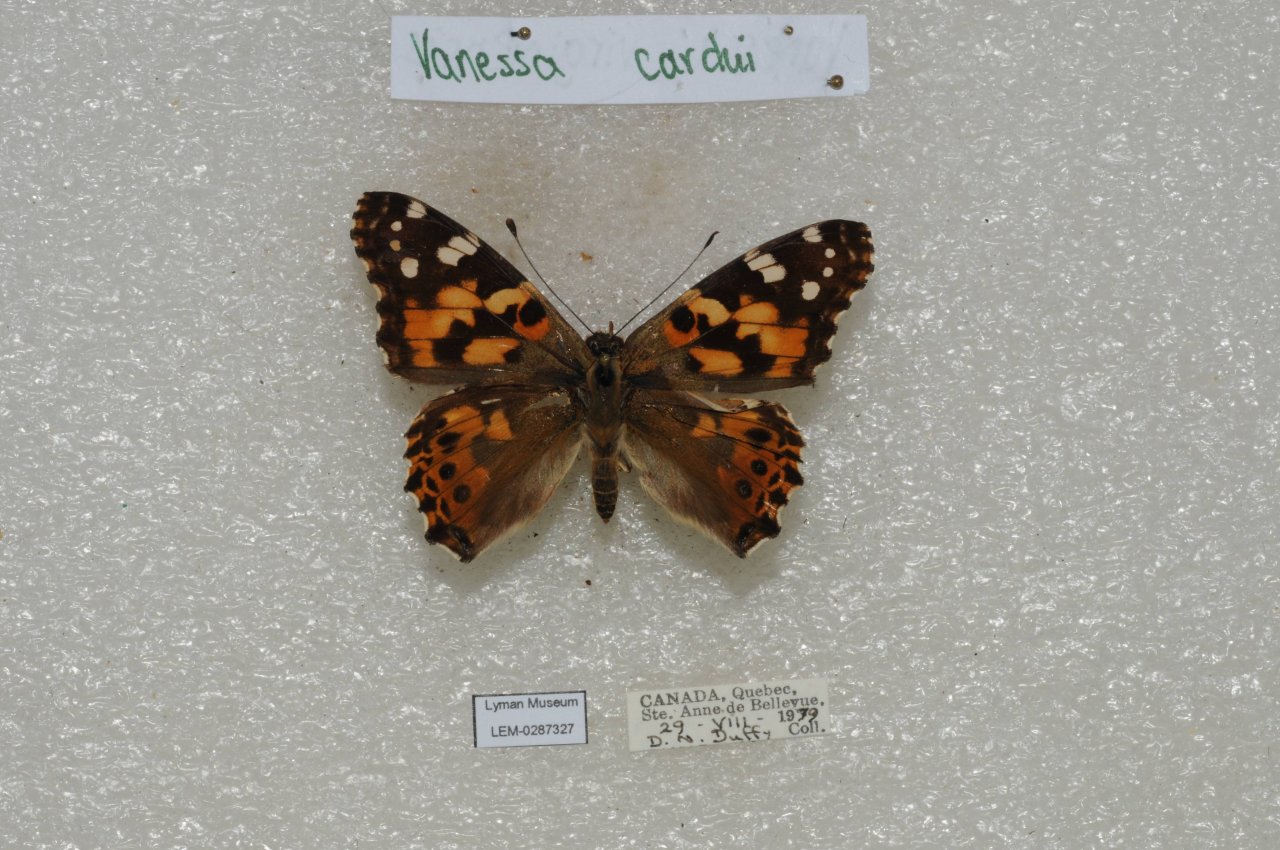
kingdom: Animalia
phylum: Arthropoda
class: Insecta
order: Lepidoptera
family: Nymphalidae
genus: Vanessa
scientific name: Vanessa cardui
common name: Painted Lady
